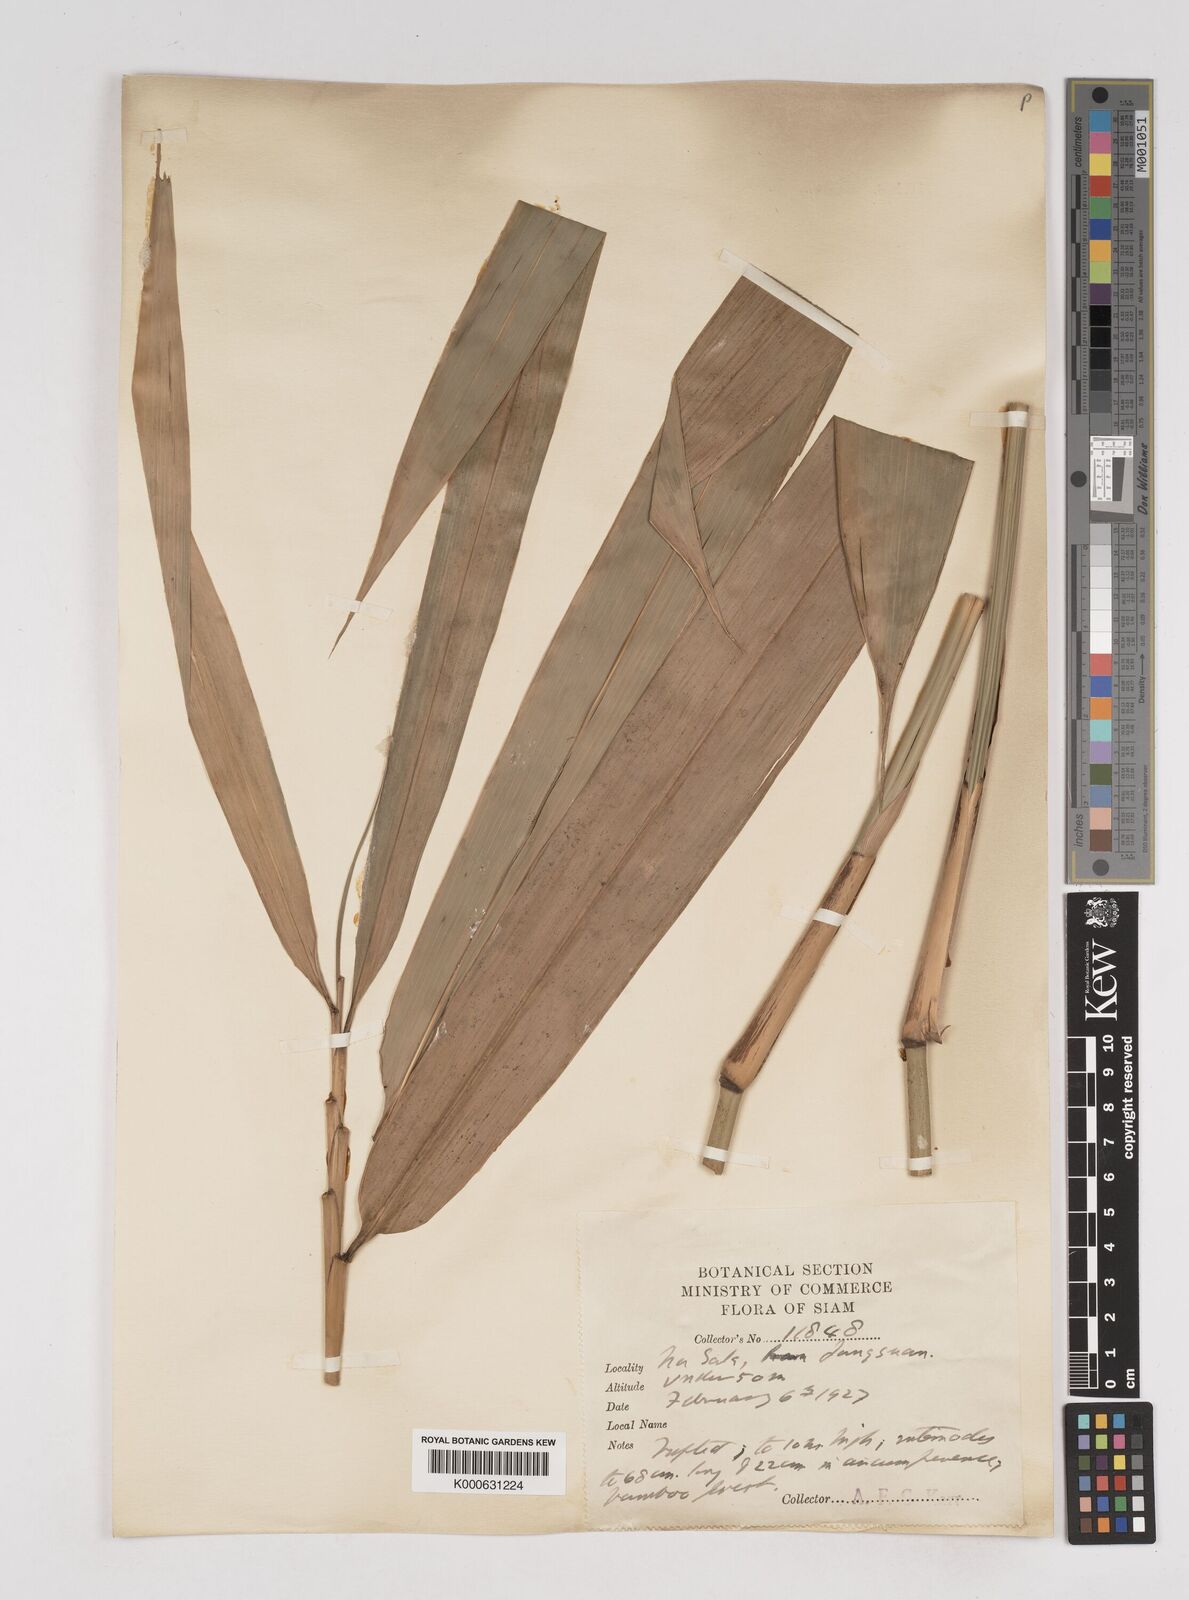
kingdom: Plantae
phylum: Tracheophyta
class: Liliopsida
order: Poales
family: Poaceae
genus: Gigantochloa
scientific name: Gigantochloa
